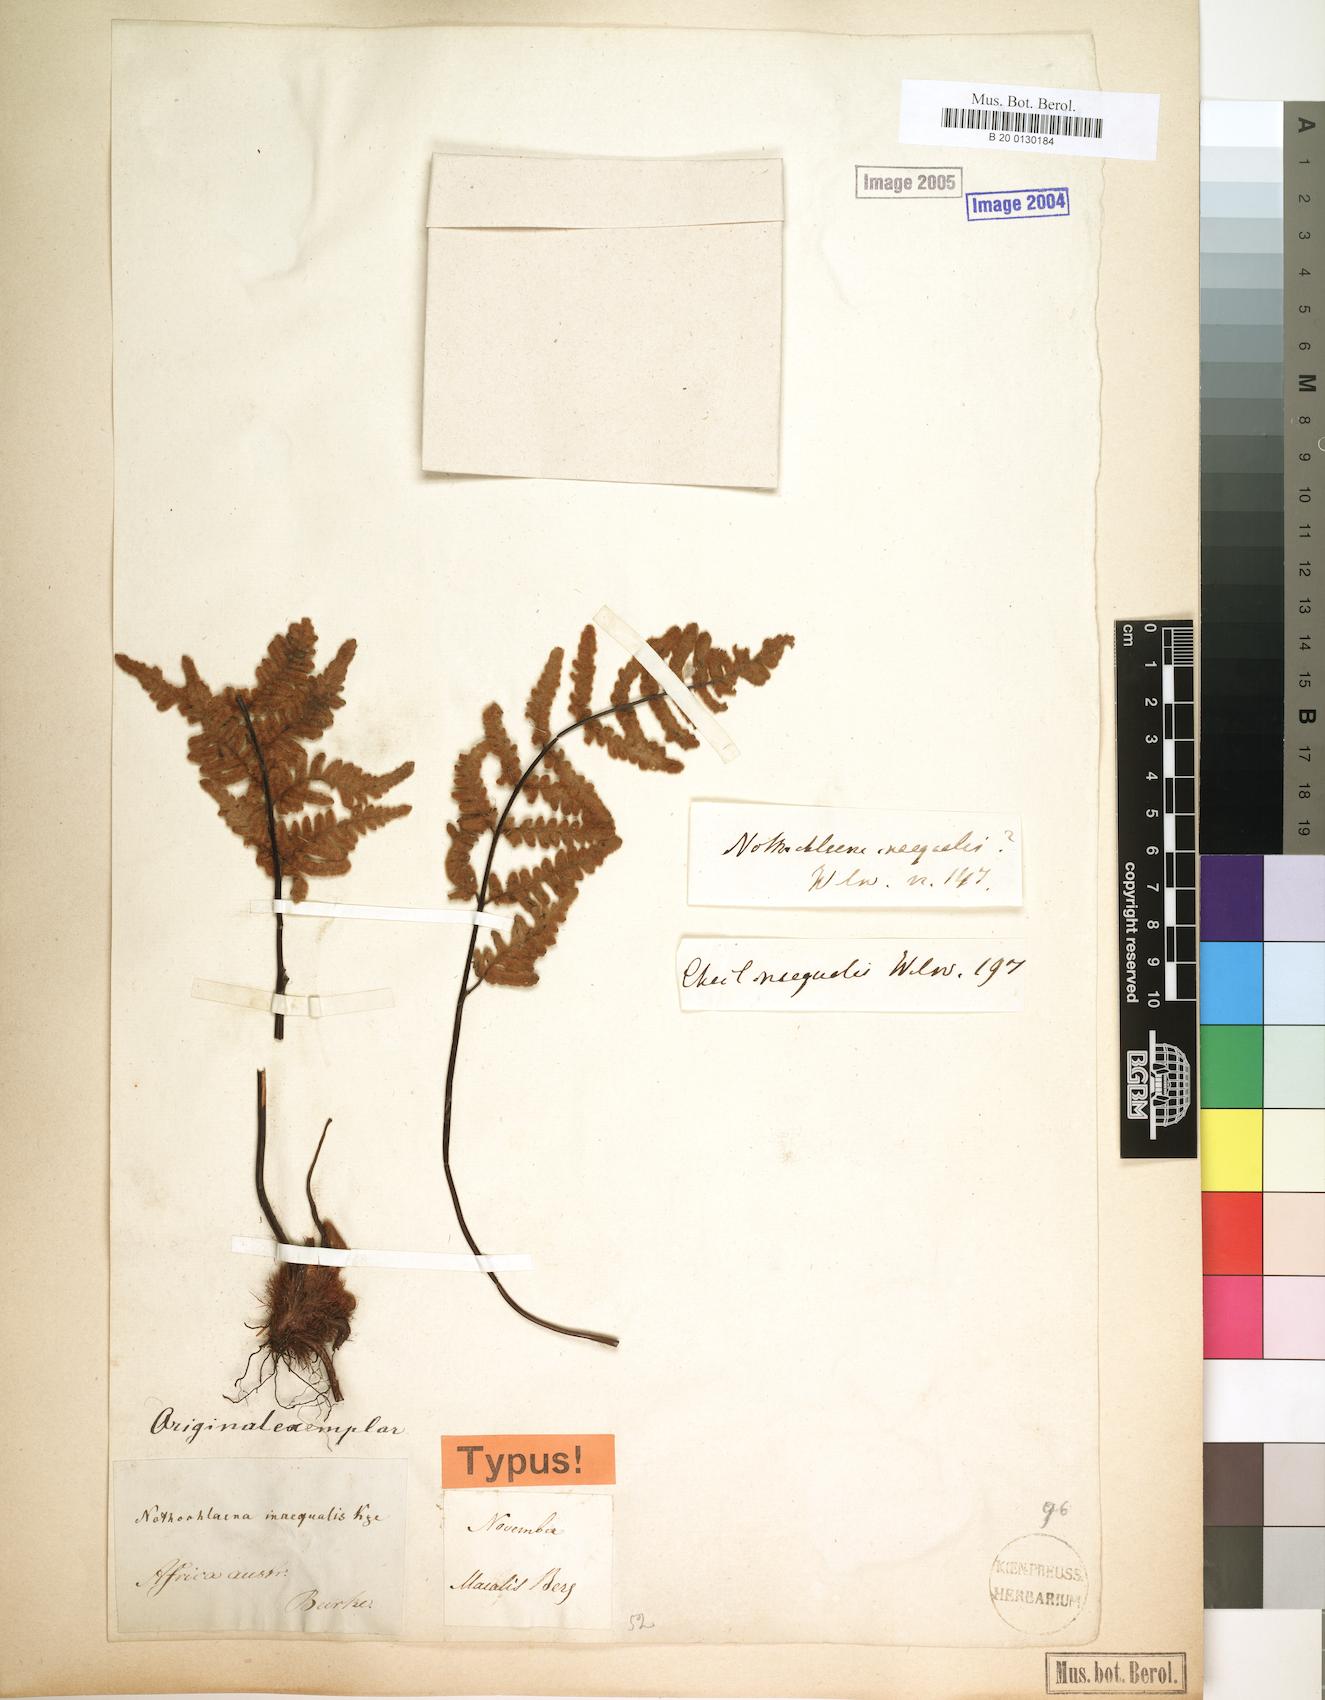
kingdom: Plantae
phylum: Tracheophyta
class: Polypodiopsida
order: Polypodiales
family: Pteridaceae
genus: Cheilanthes
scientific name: Cheilanthes inaequalis
